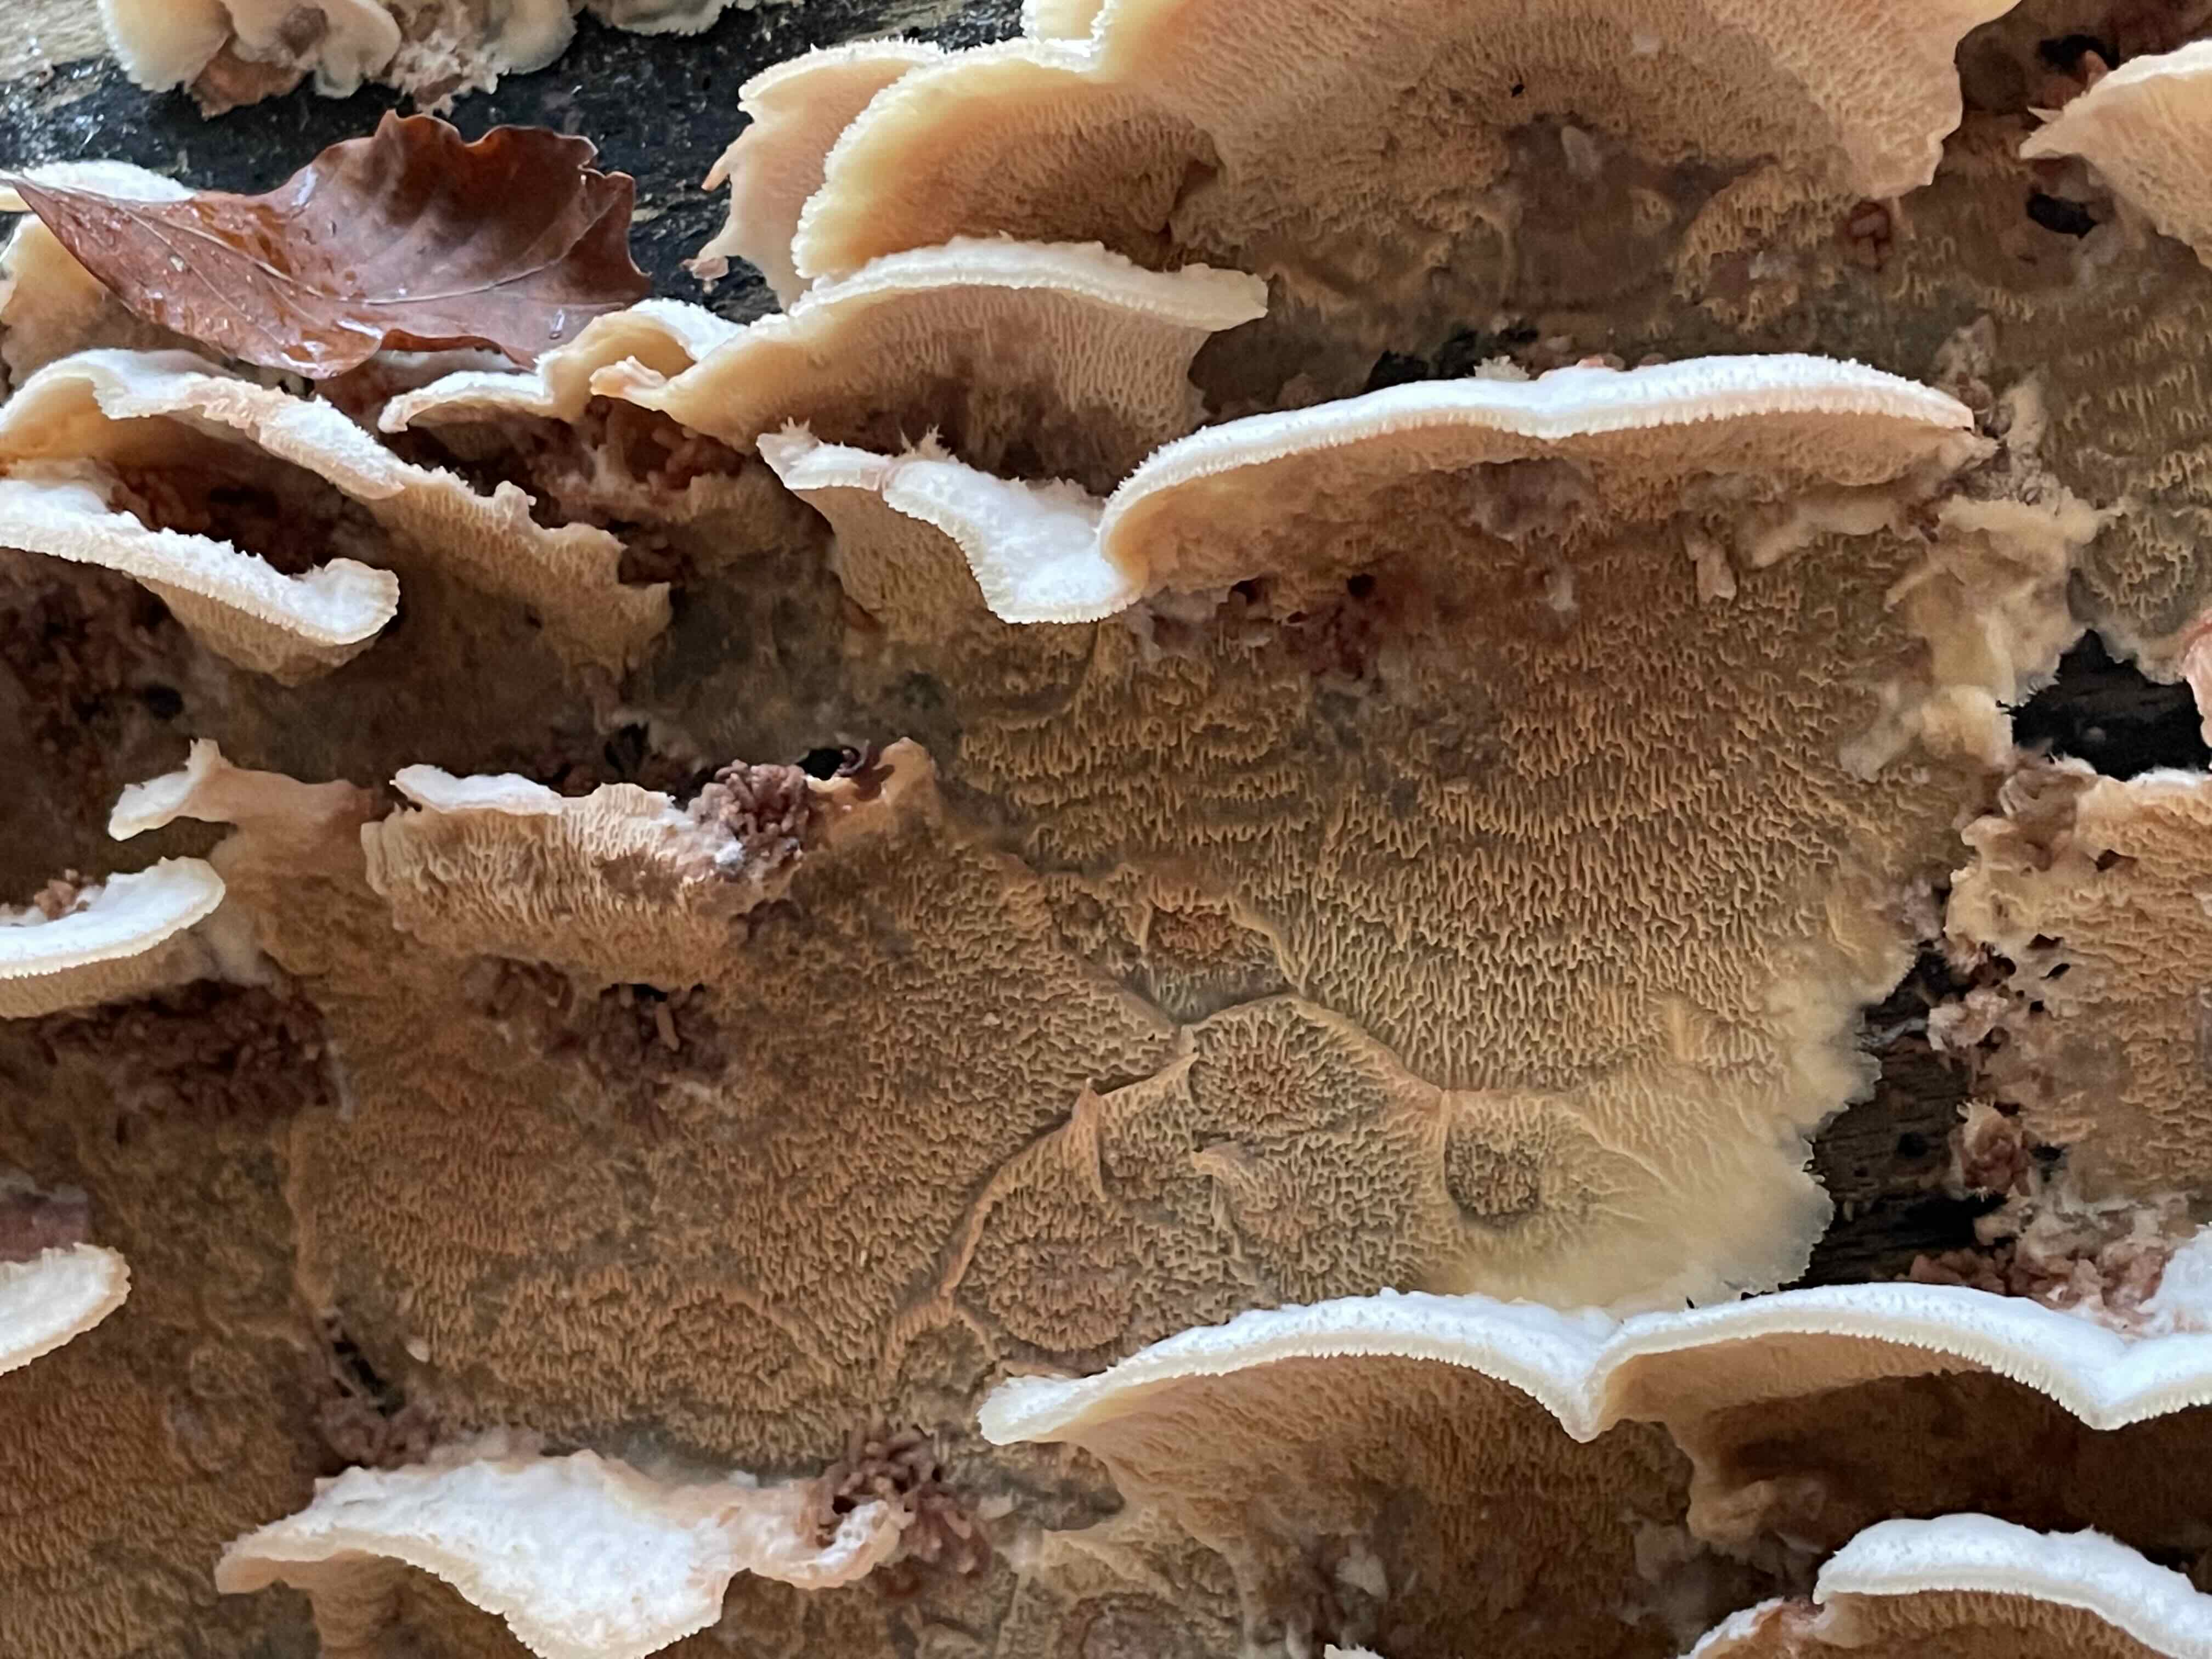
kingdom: Fungi
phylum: Basidiomycota
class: Agaricomycetes
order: Polyporales
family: Meruliaceae
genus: Phlebia
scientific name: Phlebia tremellosa
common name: bævrende åresvamp
